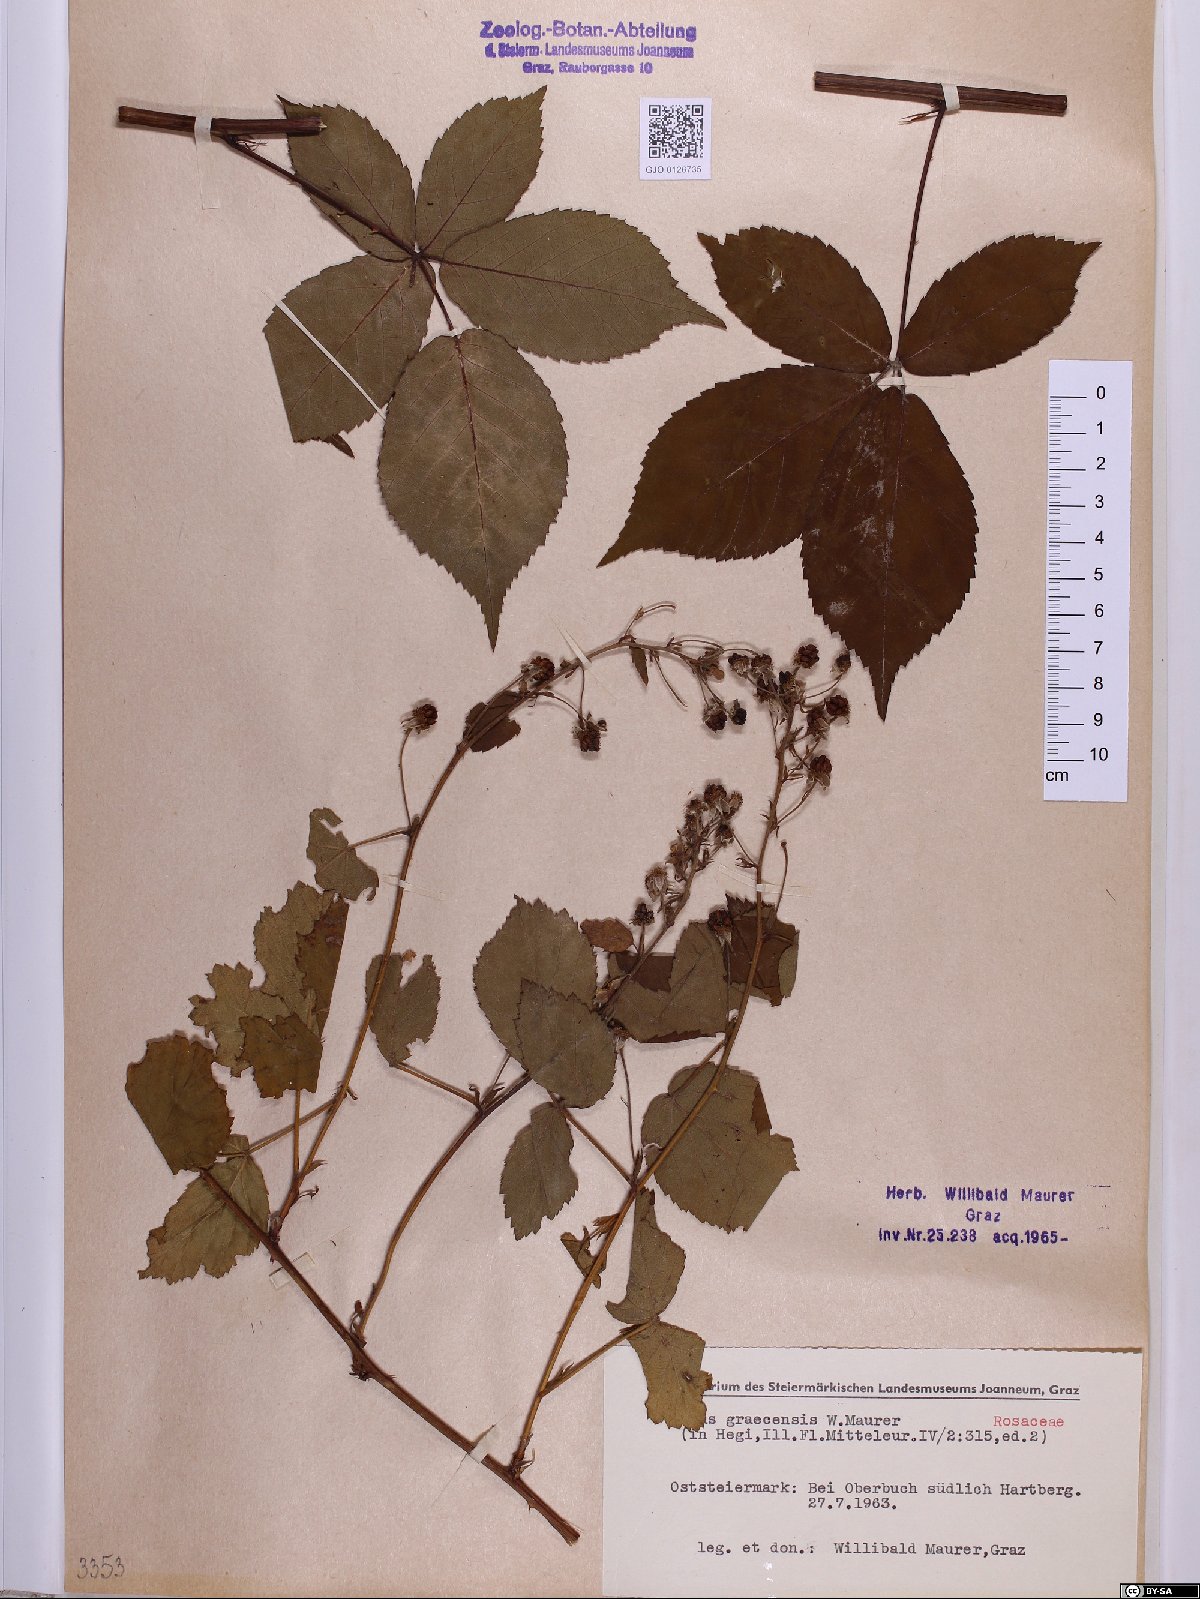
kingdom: Plantae
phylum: Tracheophyta
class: Magnoliopsida
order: Rosales
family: Rosaceae
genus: Rubus
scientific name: Rubus graecensis
